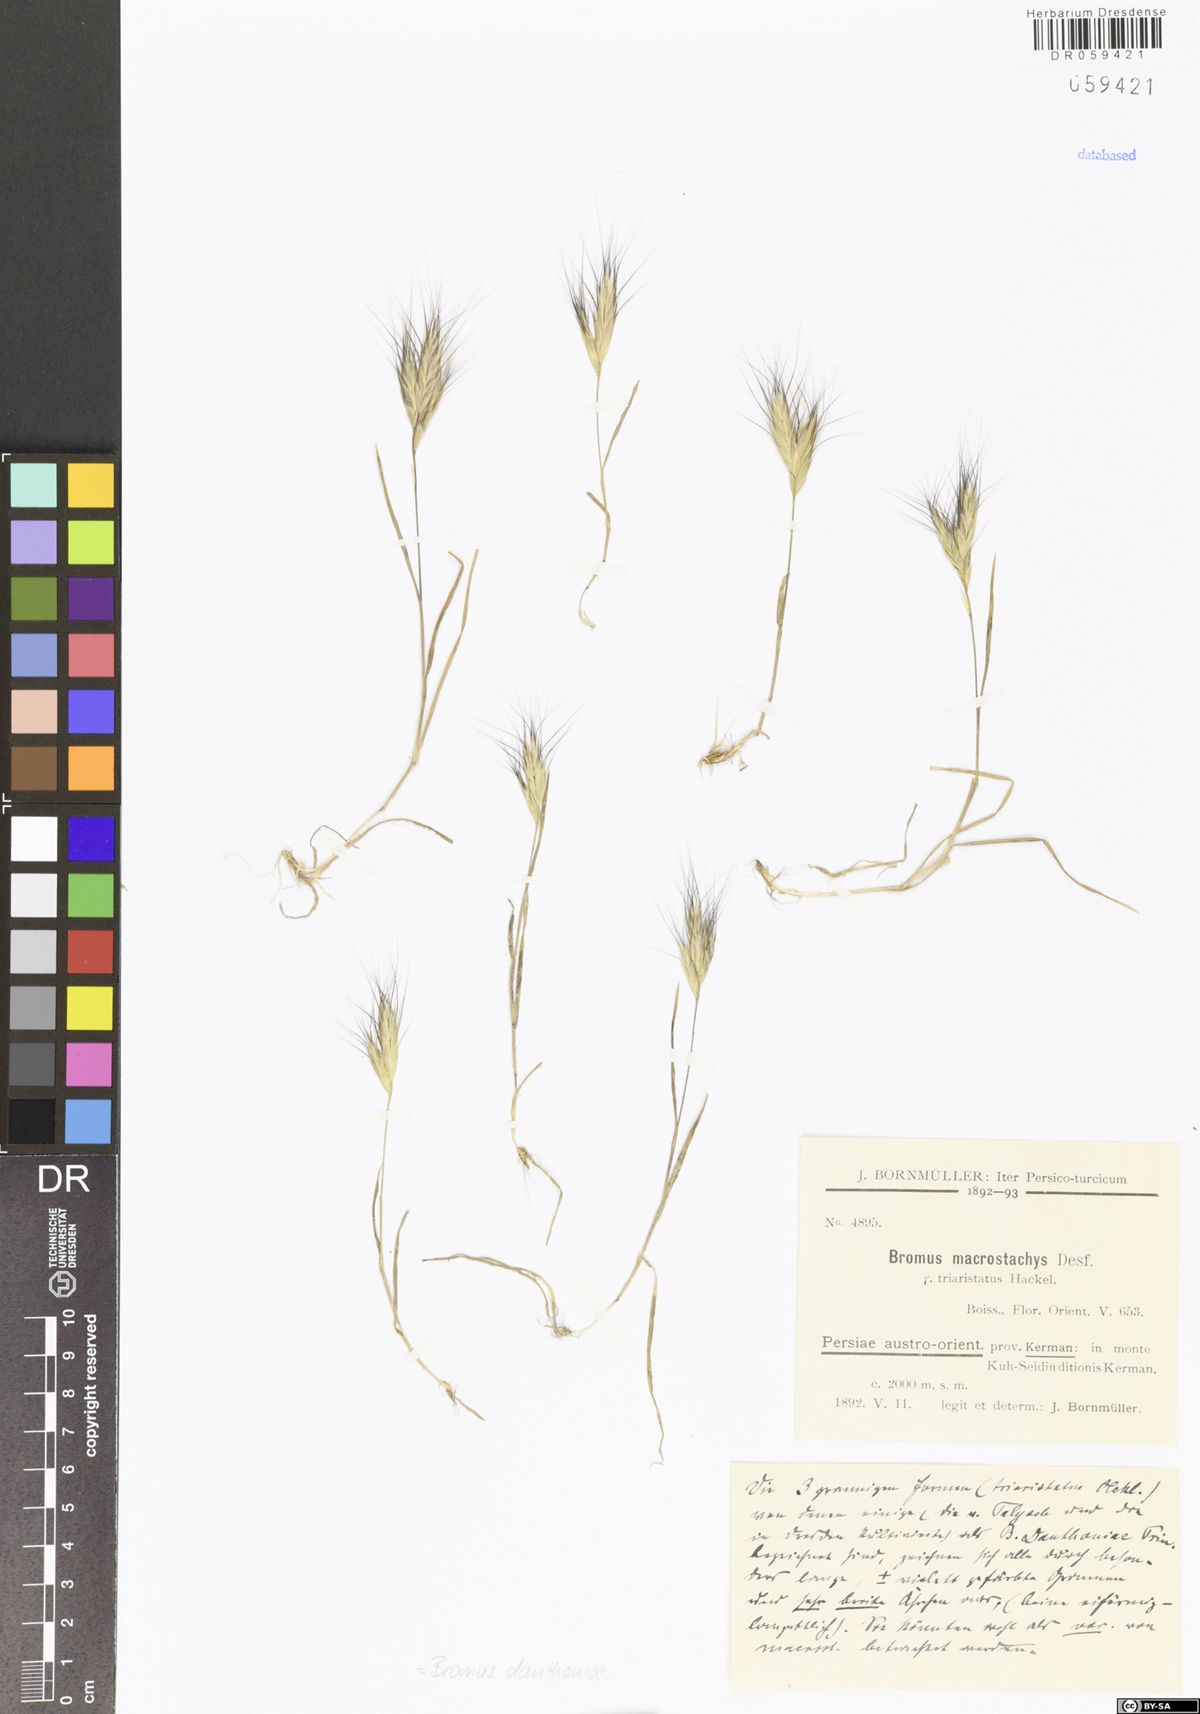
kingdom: Plantae
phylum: Tracheophyta
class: Liliopsida
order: Poales
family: Poaceae
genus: Bromus
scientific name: Bromus danthoniae
